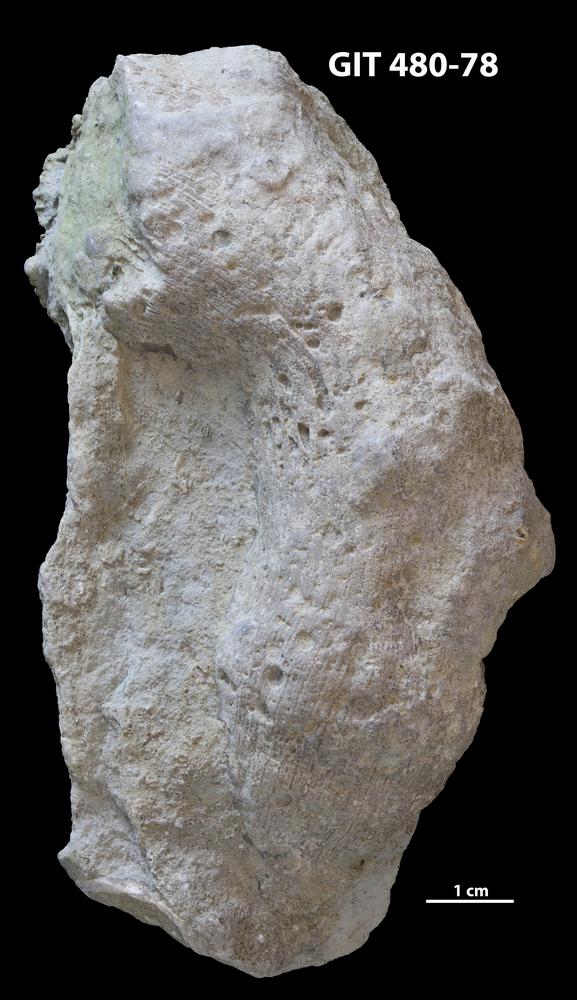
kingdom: Animalia
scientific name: Animalia
